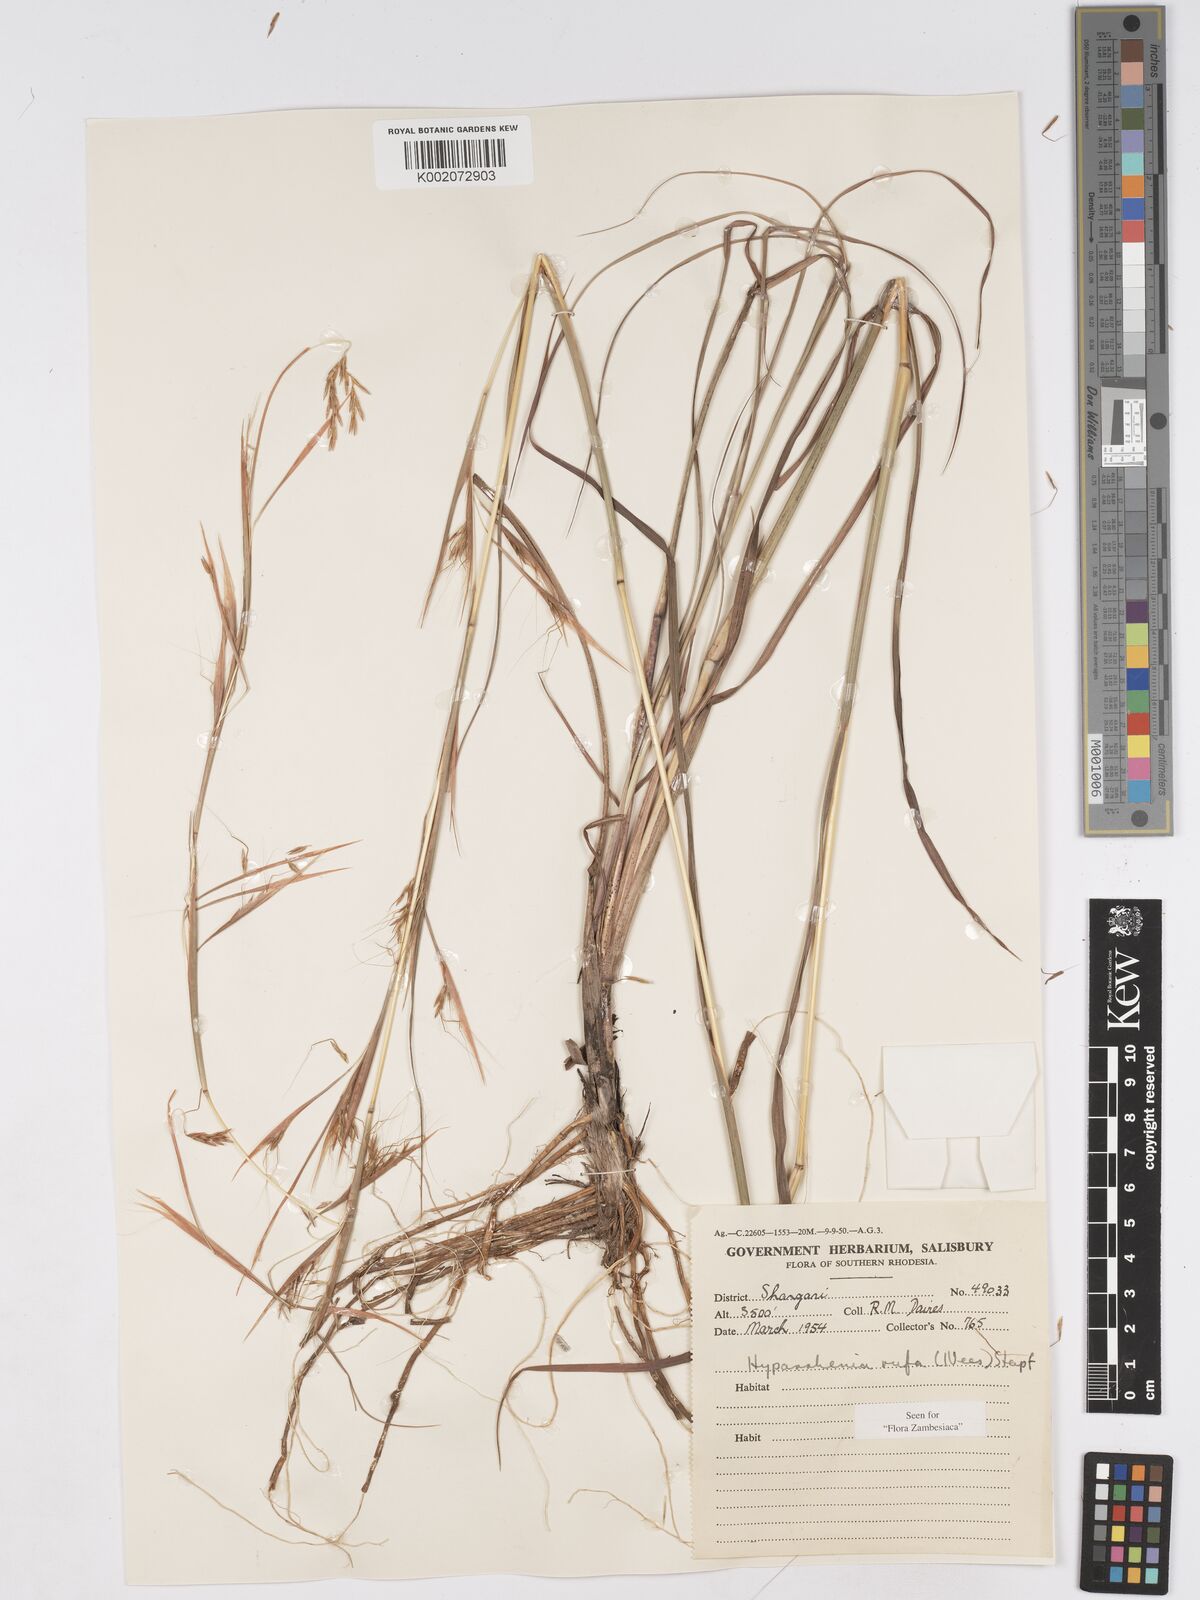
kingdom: Plantae
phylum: Tracheophyta
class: Liliopsida
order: Poales
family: Poaceae
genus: Hyparrhenia
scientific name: Hyparrhenia rufa
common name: Jaraguagrass
